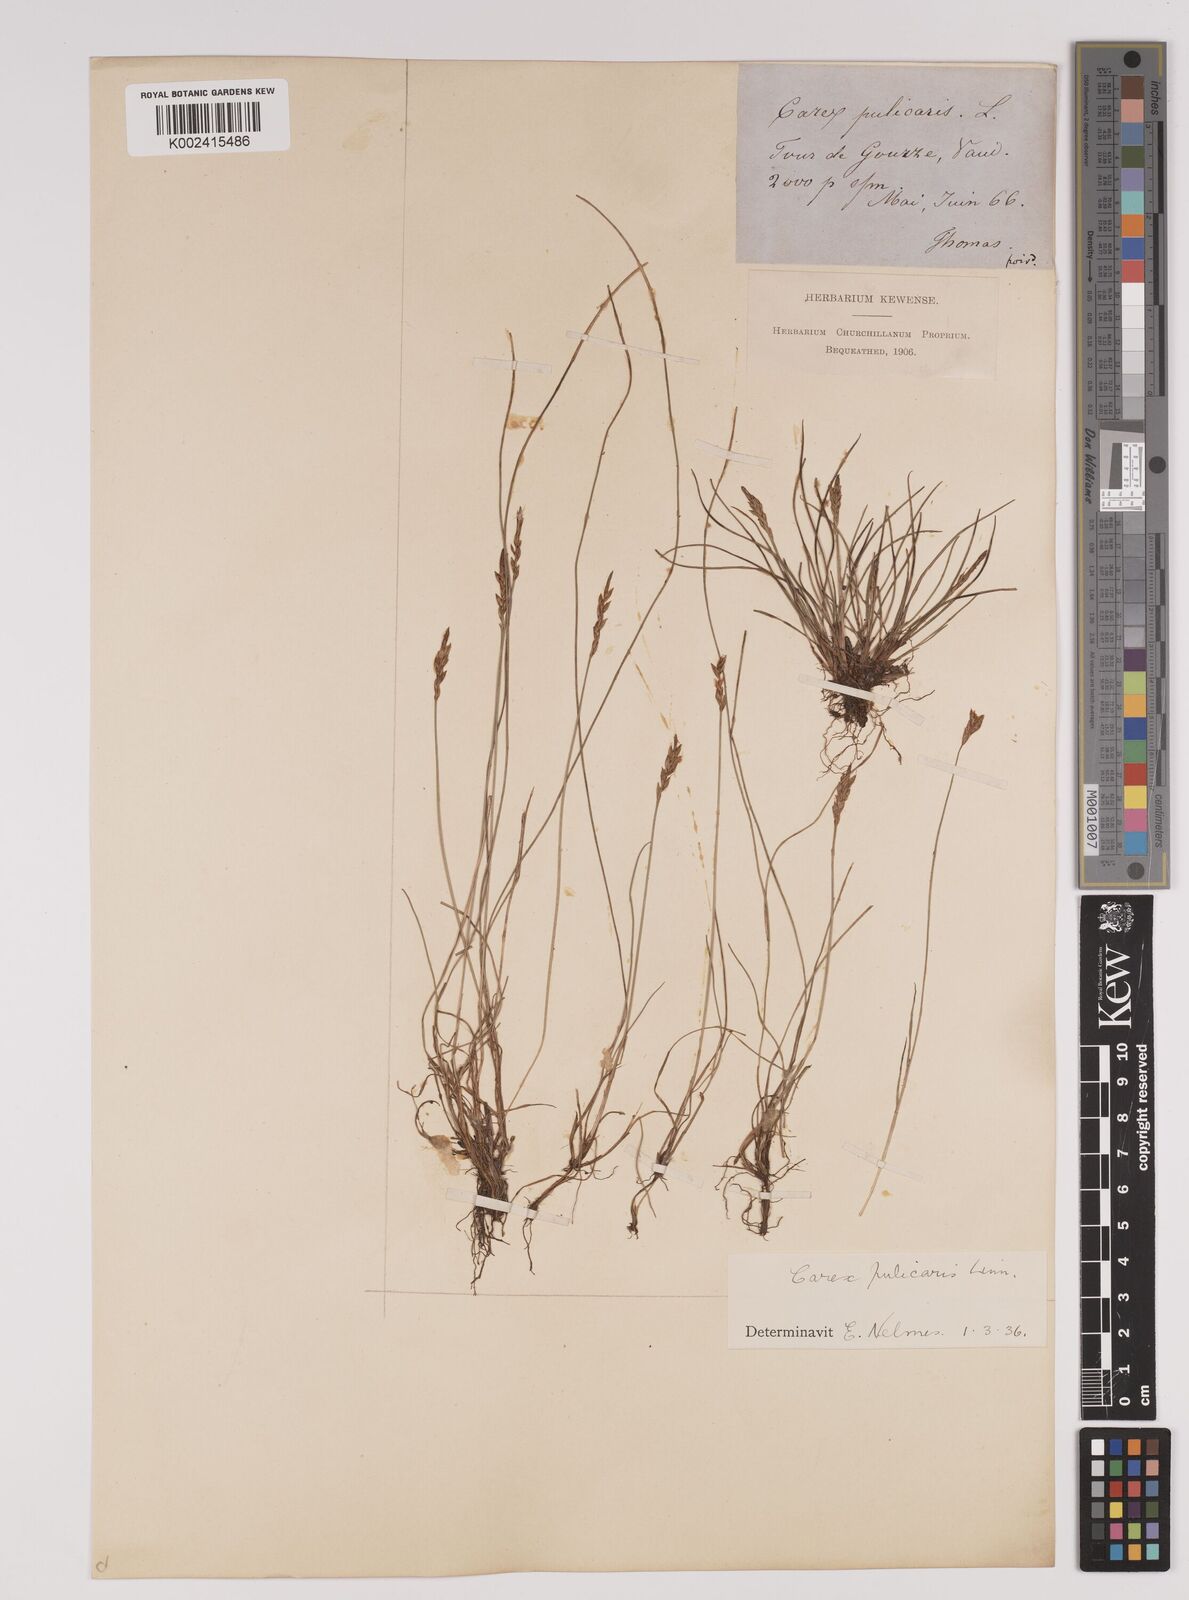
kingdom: Plantae
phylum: Tracheophyta
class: Liliopsida
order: Poales
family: Cyperaceae
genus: Carex
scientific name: Carex pulicaris
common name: Flea sedge
